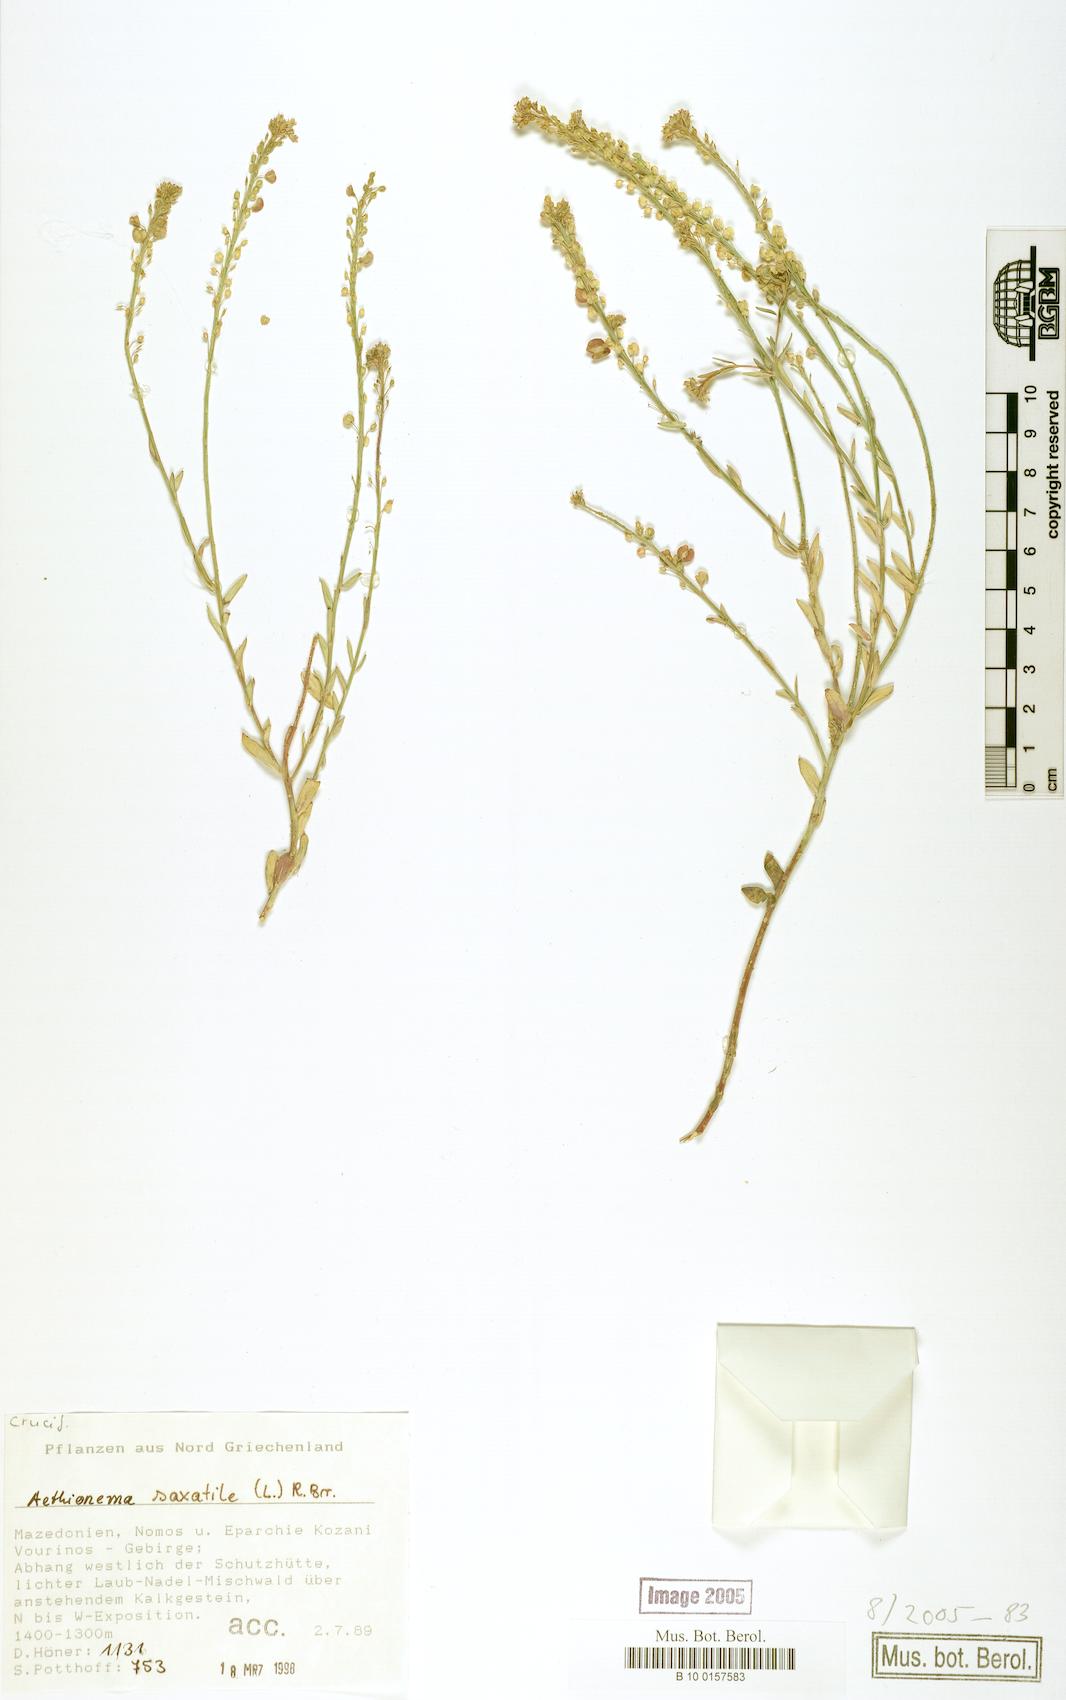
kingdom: Plantae
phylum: Tracheophyta
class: Magnoliopsida
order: Brassicales
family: Brassicaceae
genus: Aethionema
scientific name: Aethionema saxatile
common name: Burnt candytuft
